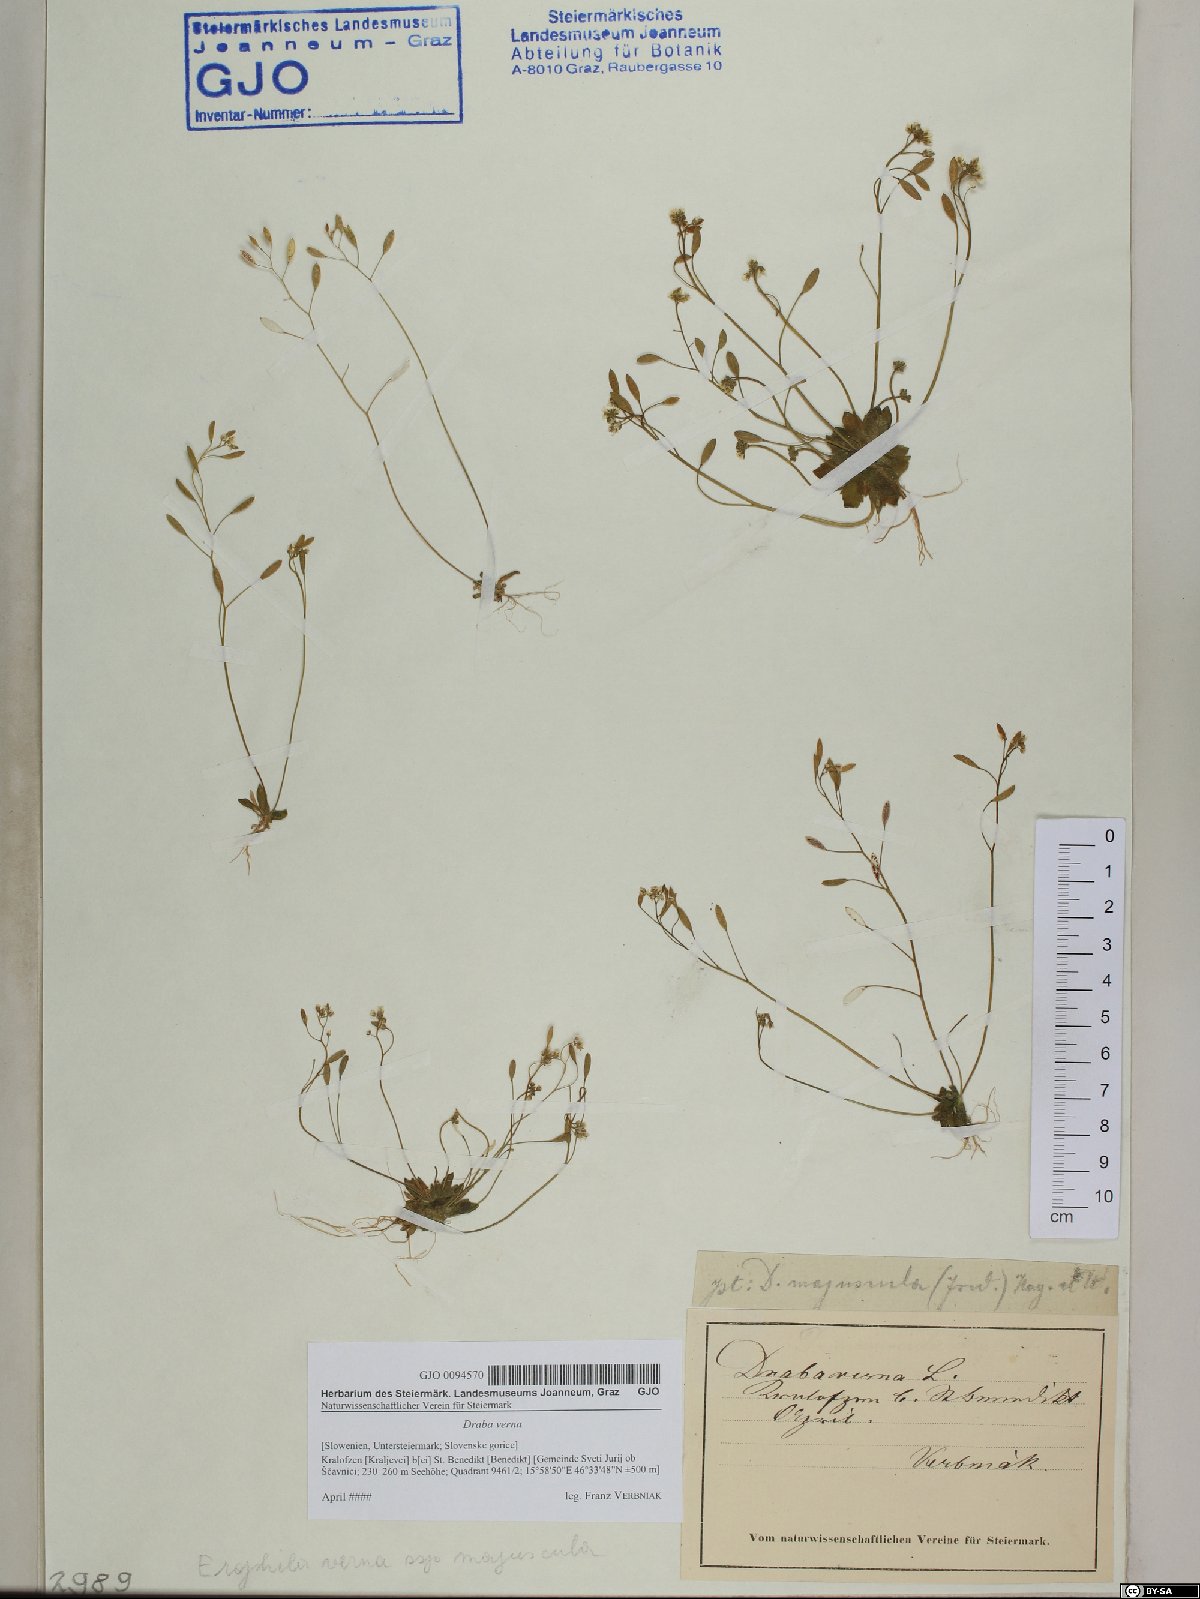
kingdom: Plantae
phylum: Tracheophyta
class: Magnoliopsida
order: Brassicales
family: Brassicaceae
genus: Draba
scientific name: Draba verna
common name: Spring draba
